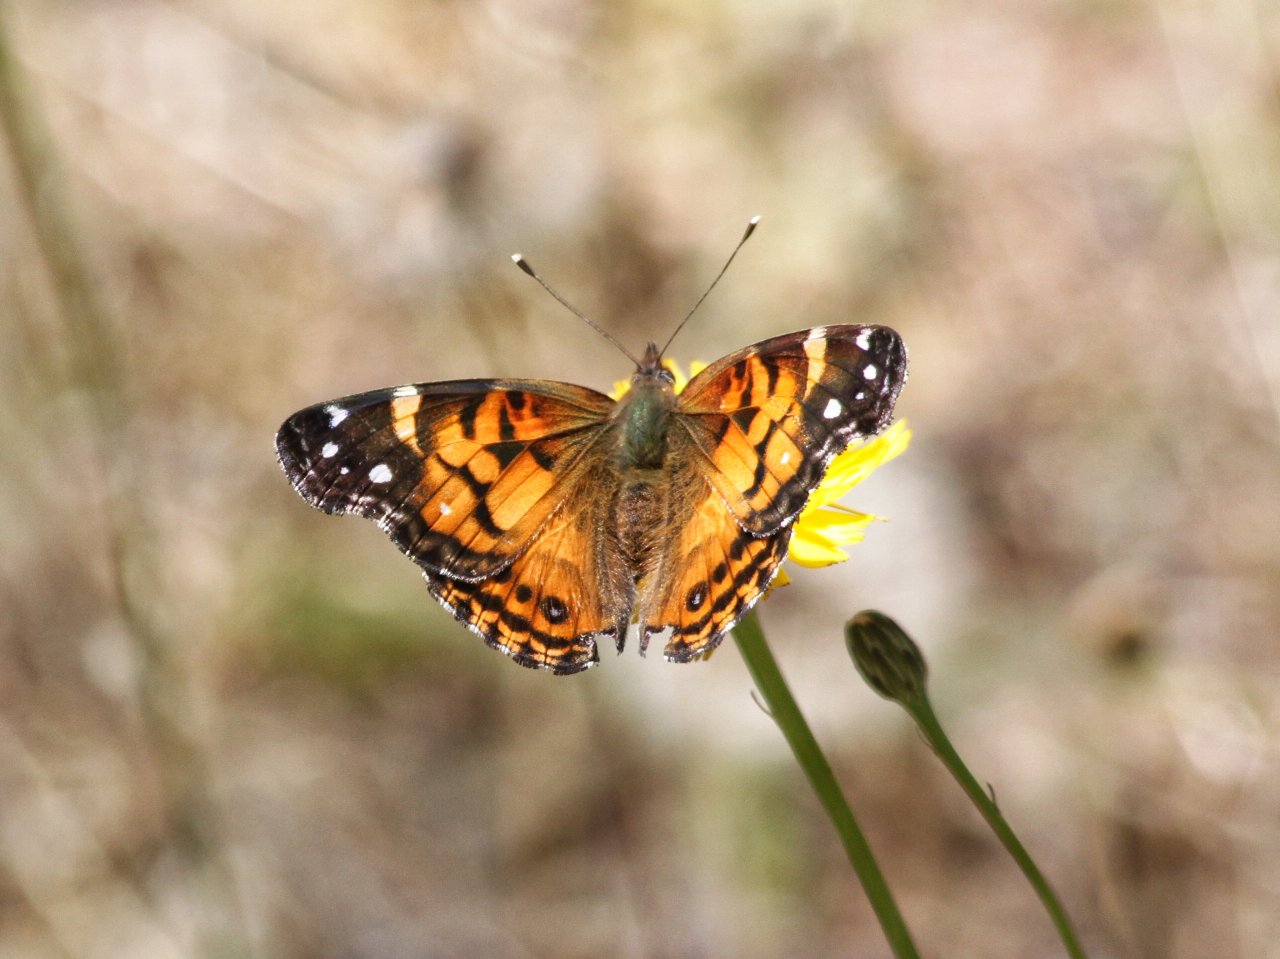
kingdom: Animalia
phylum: Arthropoda
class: Insecta
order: Lepidoptera
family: Nymphalidae
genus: Vanessa
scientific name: Vanessa virginiensis
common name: American Lady
